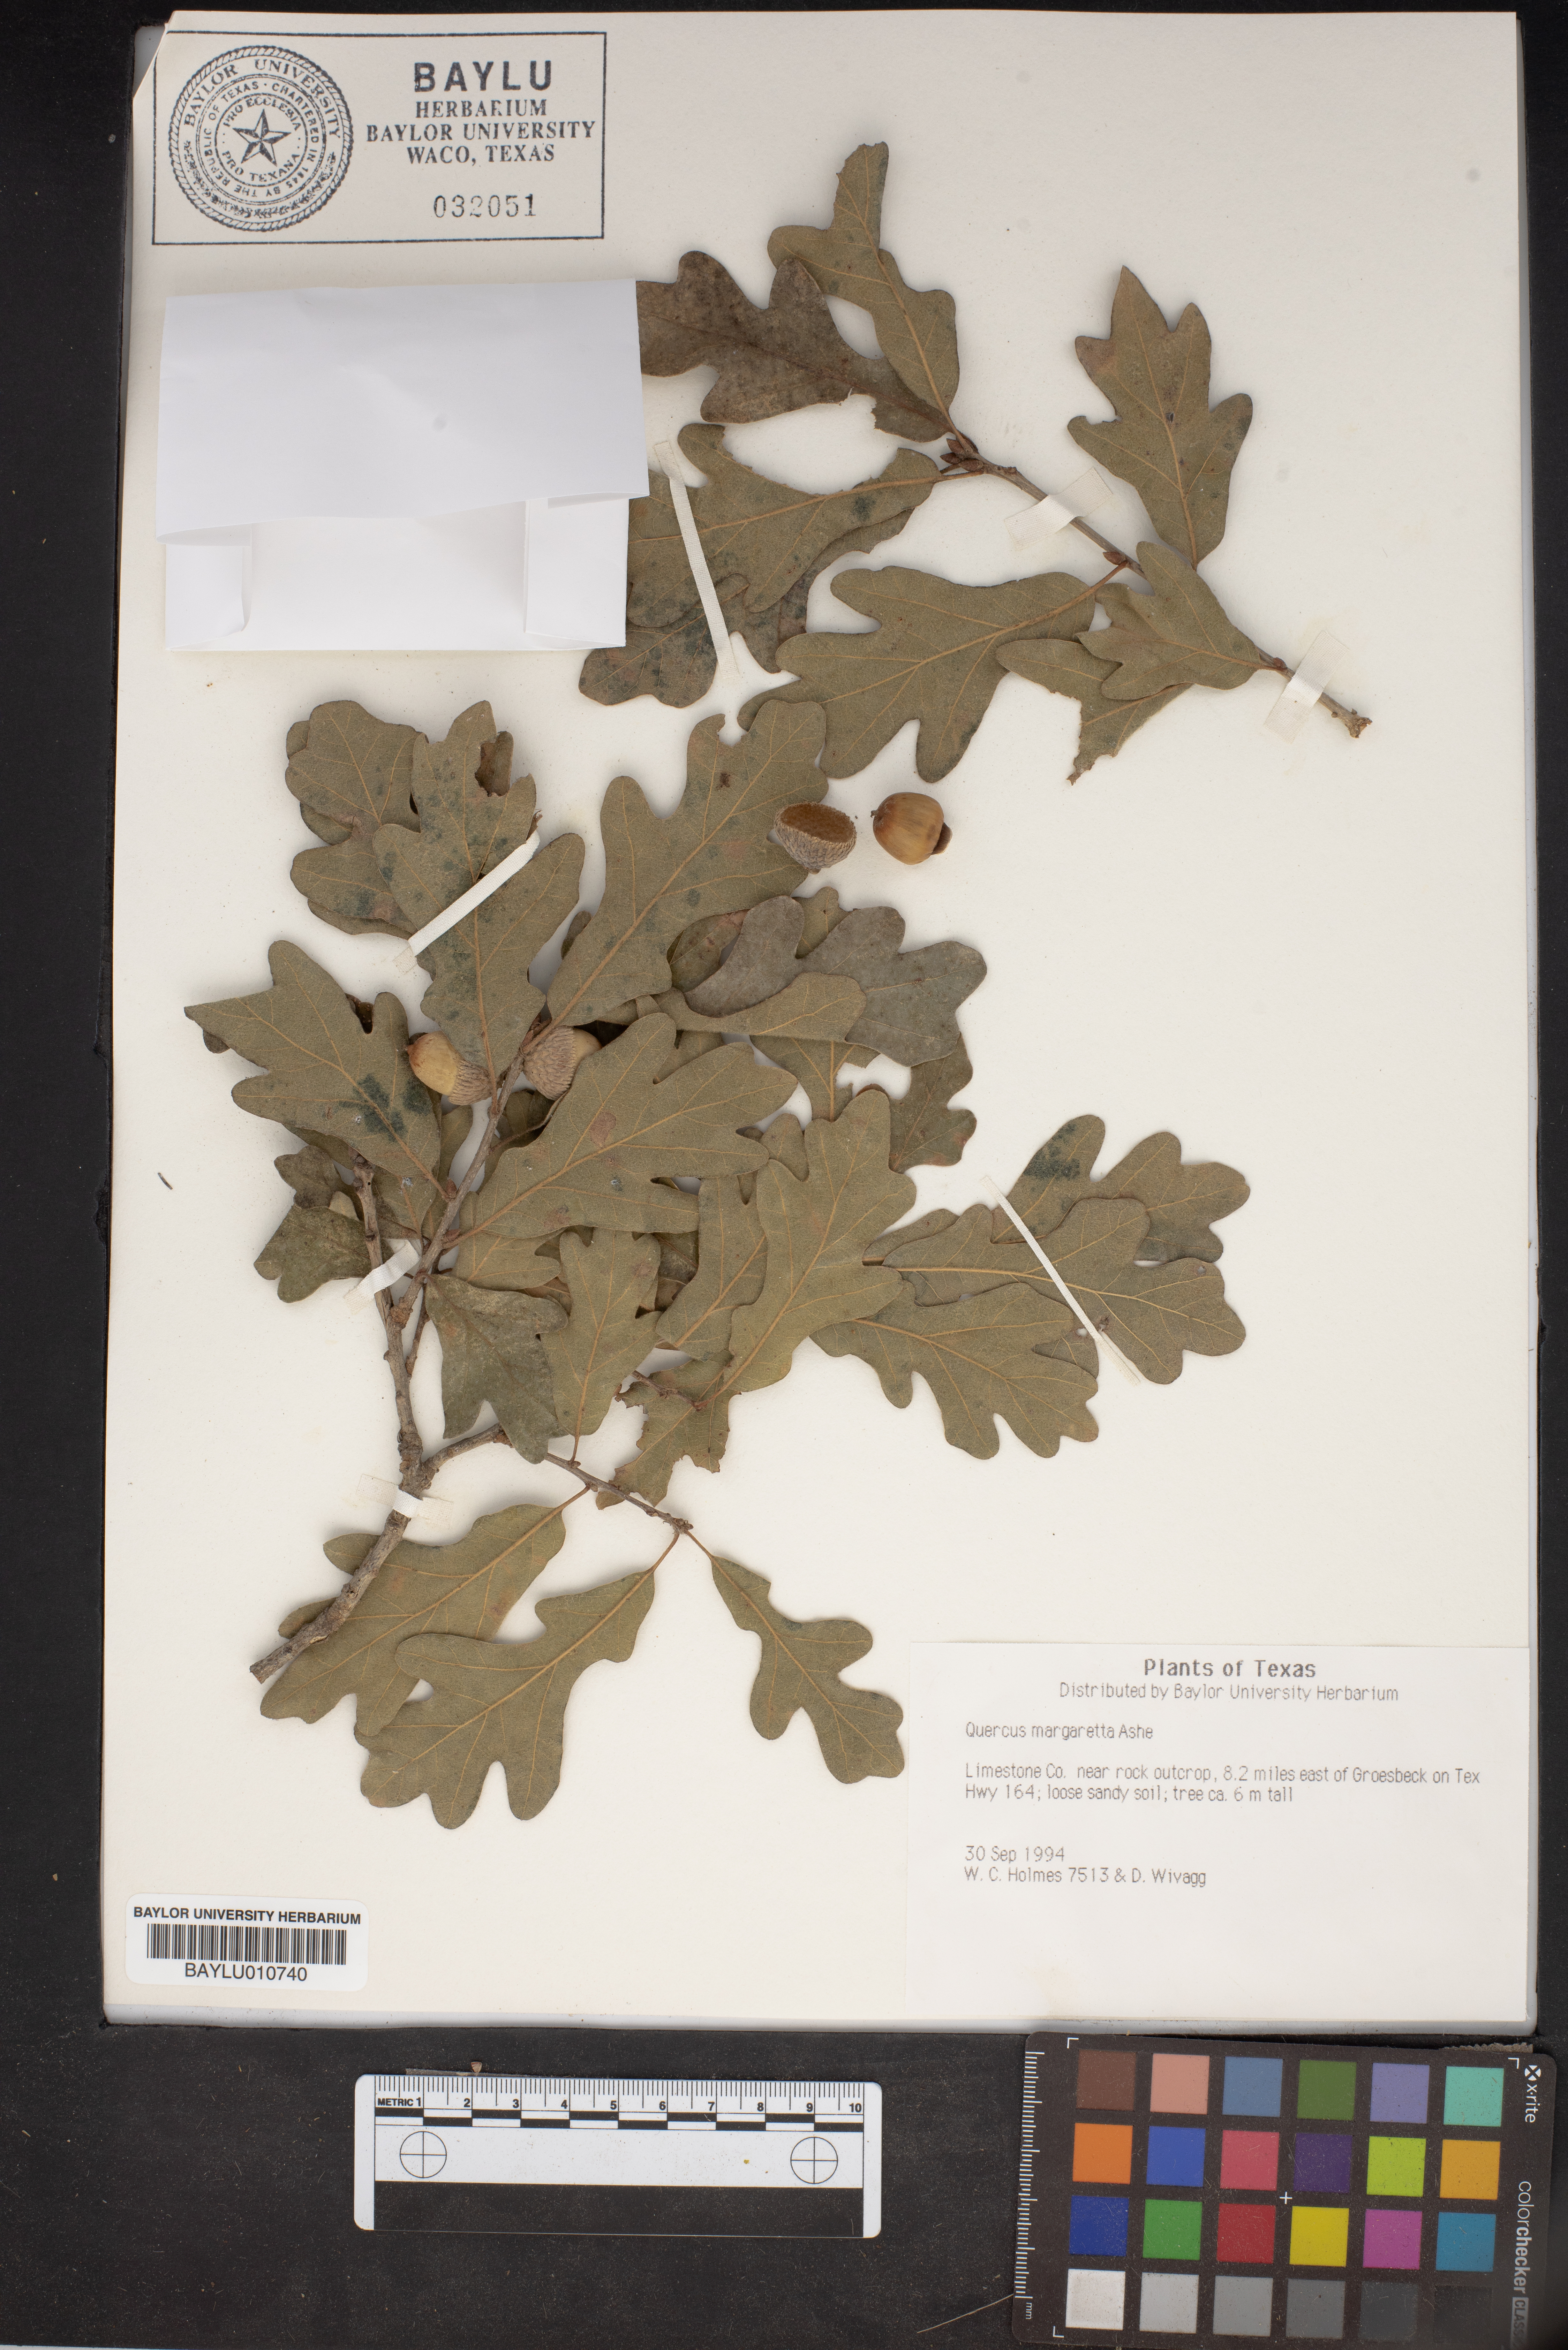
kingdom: Plantae
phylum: Tracheophyta
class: Magnoliopsida
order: Fagales
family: Fagaceae
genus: Quercus
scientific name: Quercus margaretta
